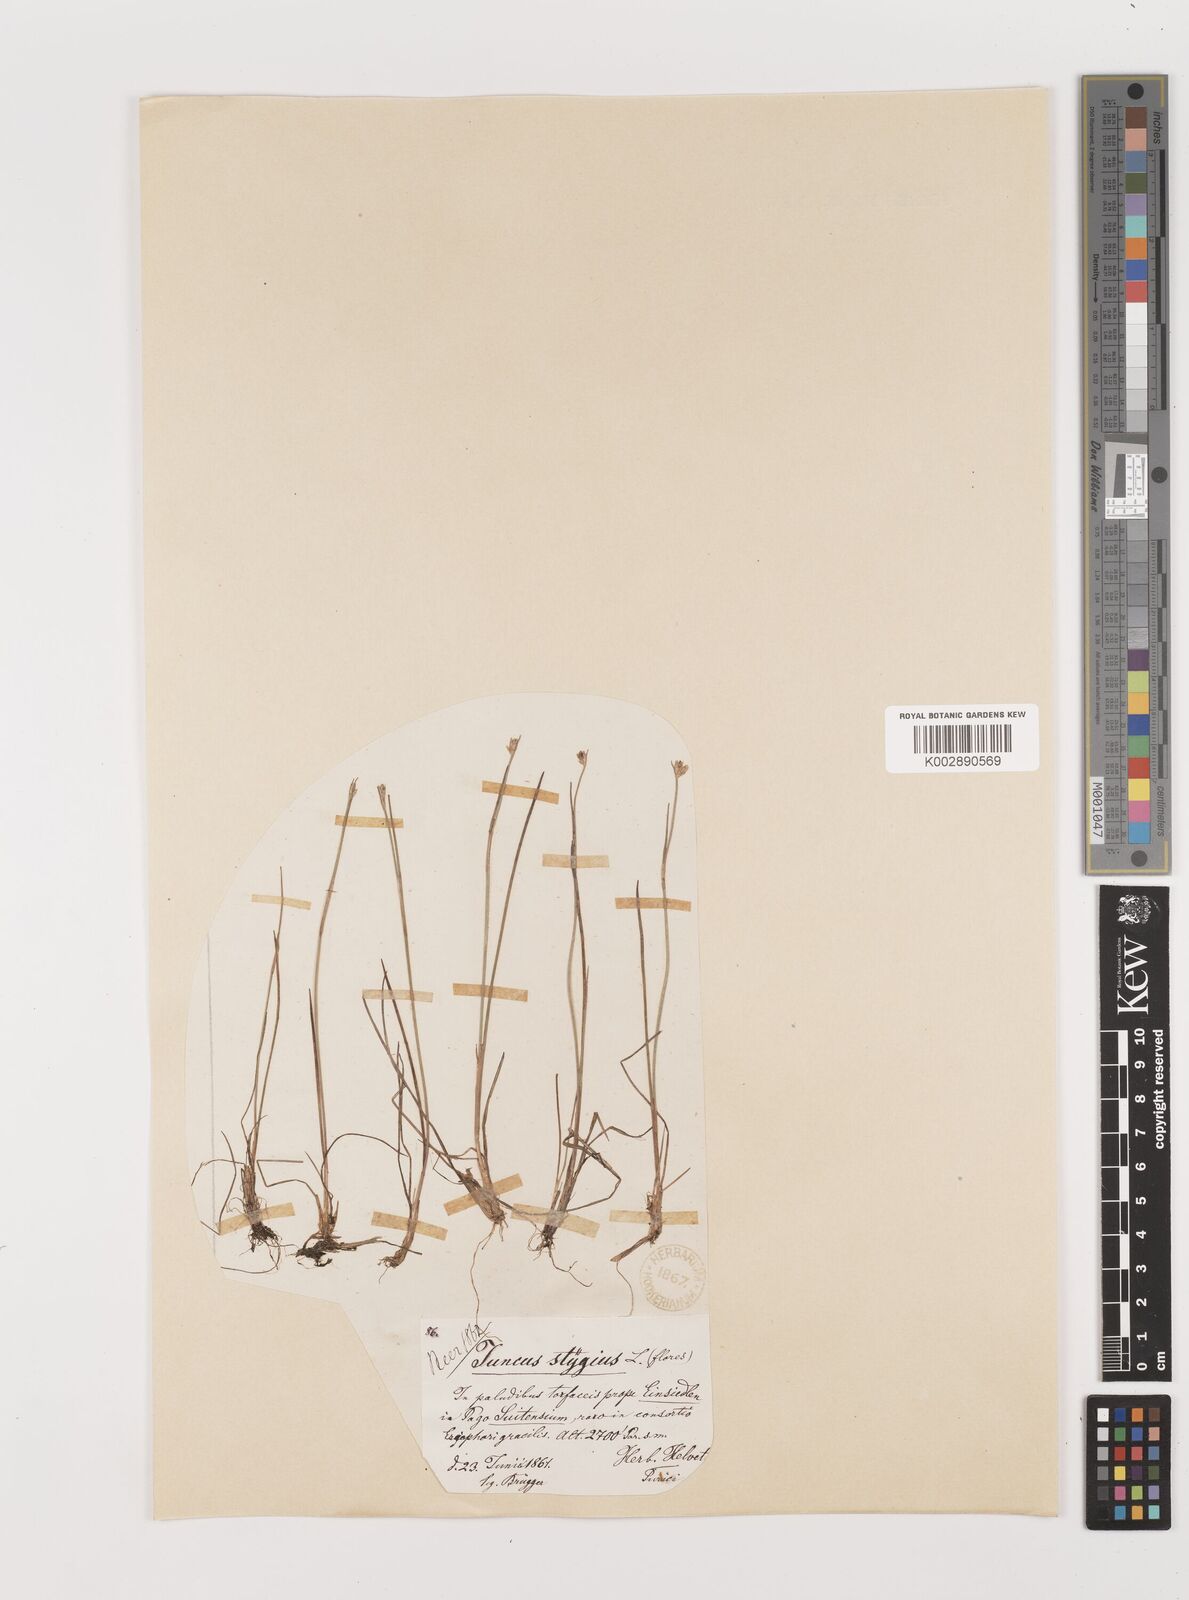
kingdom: Plantae
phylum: Tracheophyta
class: Liliopsida
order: Poales
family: Juncaceae
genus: Juncus
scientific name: Juncus stygius
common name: Bog rush
